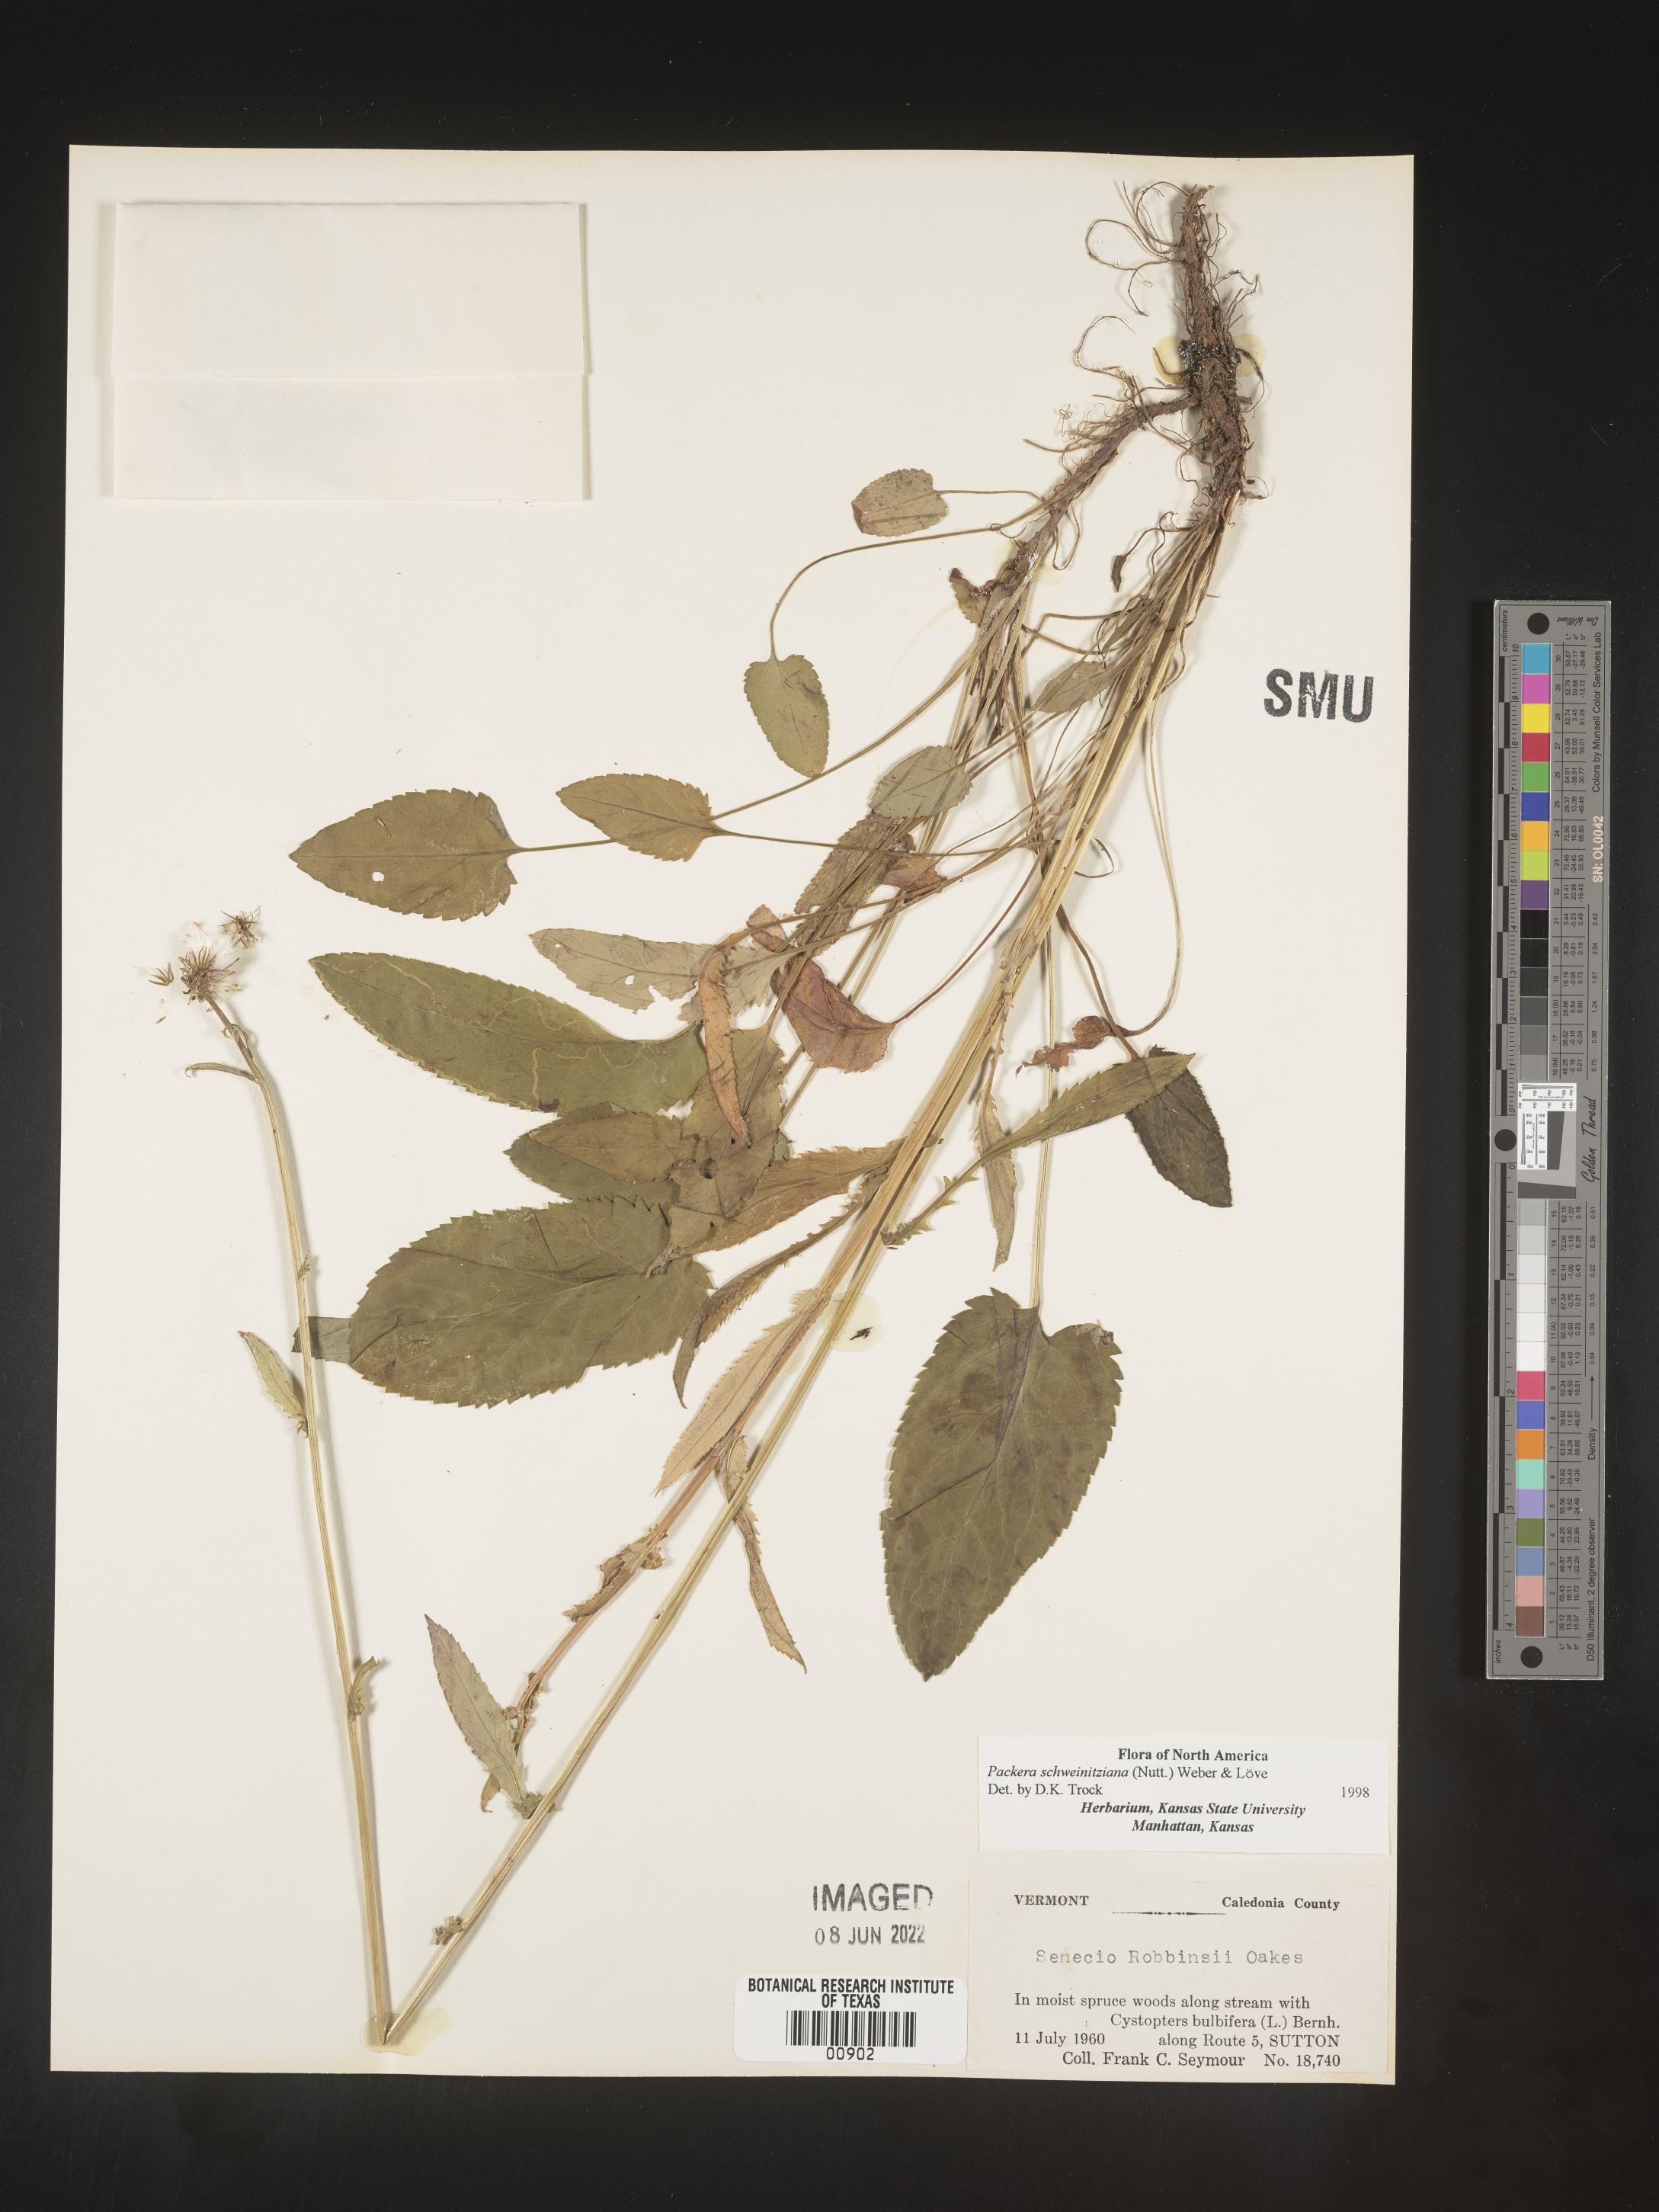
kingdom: Plantae
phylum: Tracheophyta
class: Magnoliopsida
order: Asterales
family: Asteraceae
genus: Packera
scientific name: Packera schweinitziana
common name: Schweinitz's ragwort
